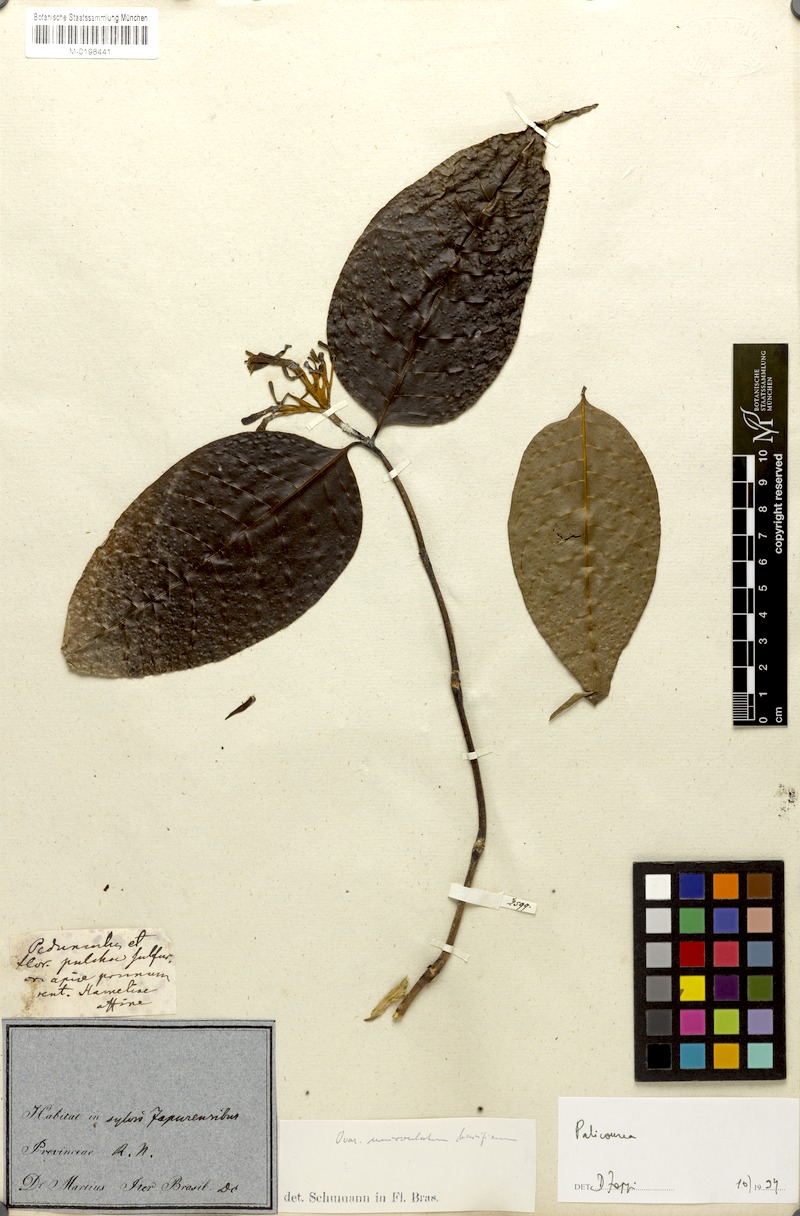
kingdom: Plantae
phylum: Tracheophyta
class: Magnoliopsida
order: Gentianales
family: Rubiaceae
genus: Palicourea
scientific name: Palicourea
